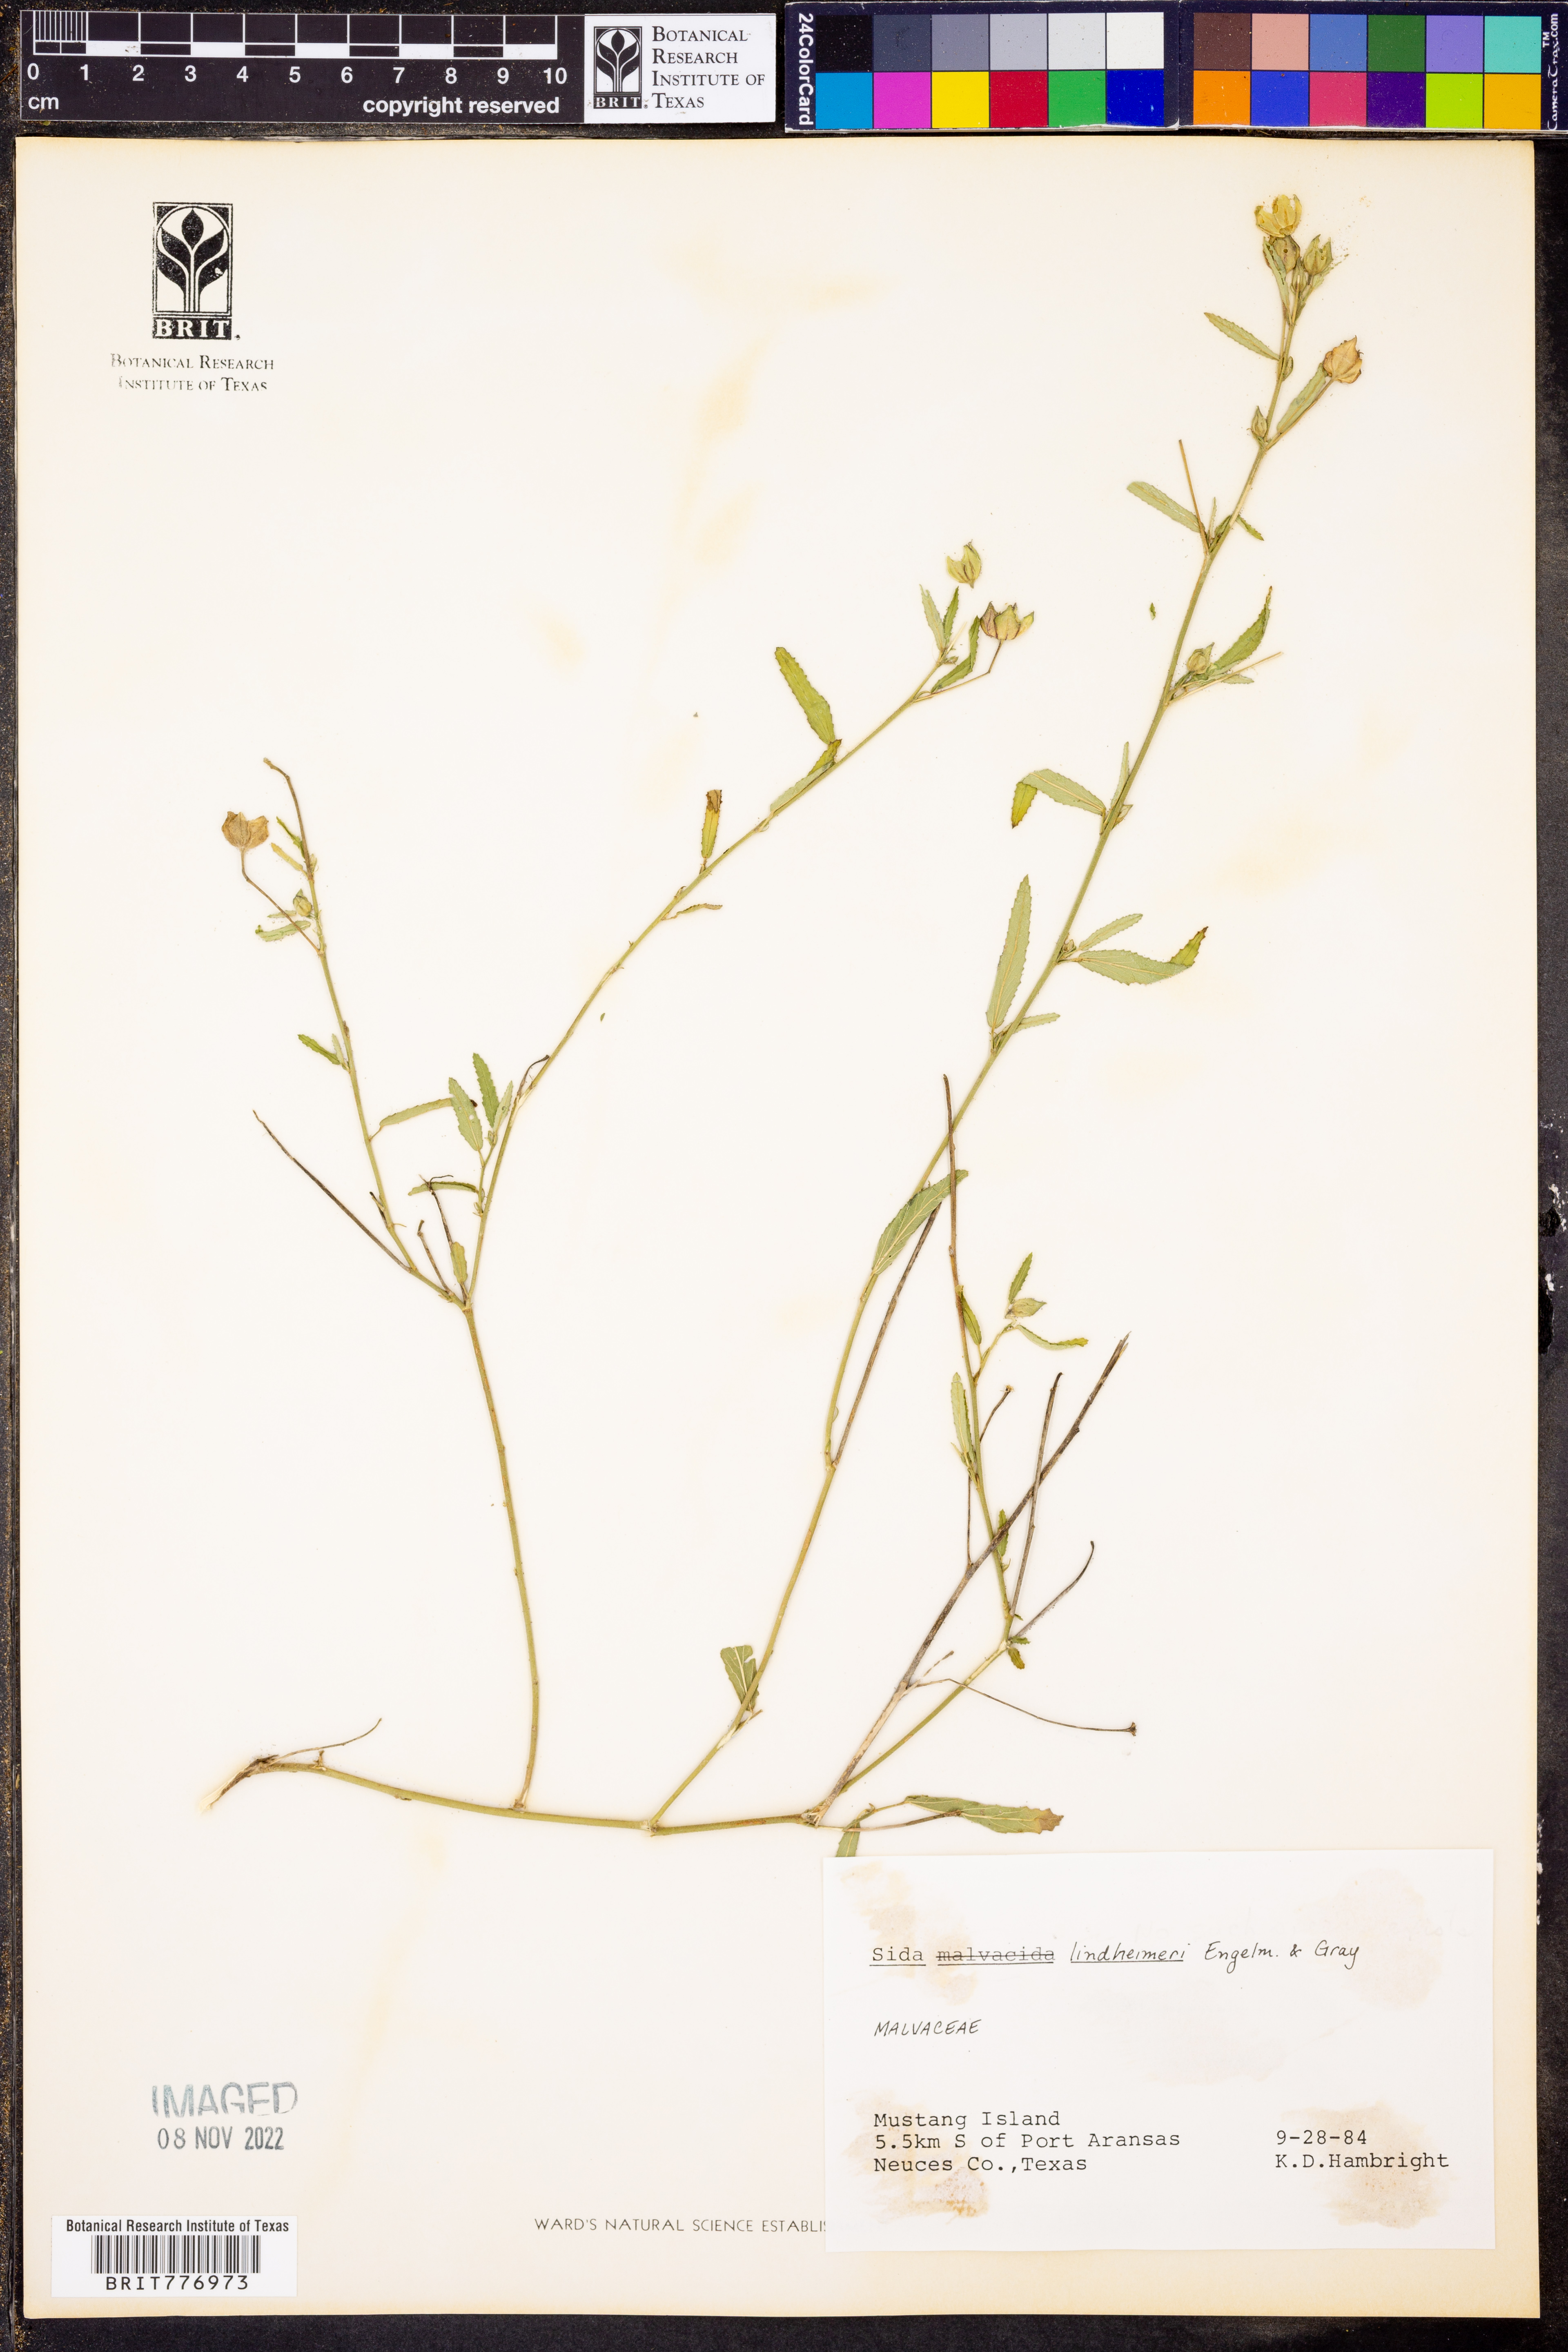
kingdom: Plantae
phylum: Tracheophyta
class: Magnoliopsida
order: Malvales
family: Malvaceae
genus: Sida
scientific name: Sida lindheimeri
